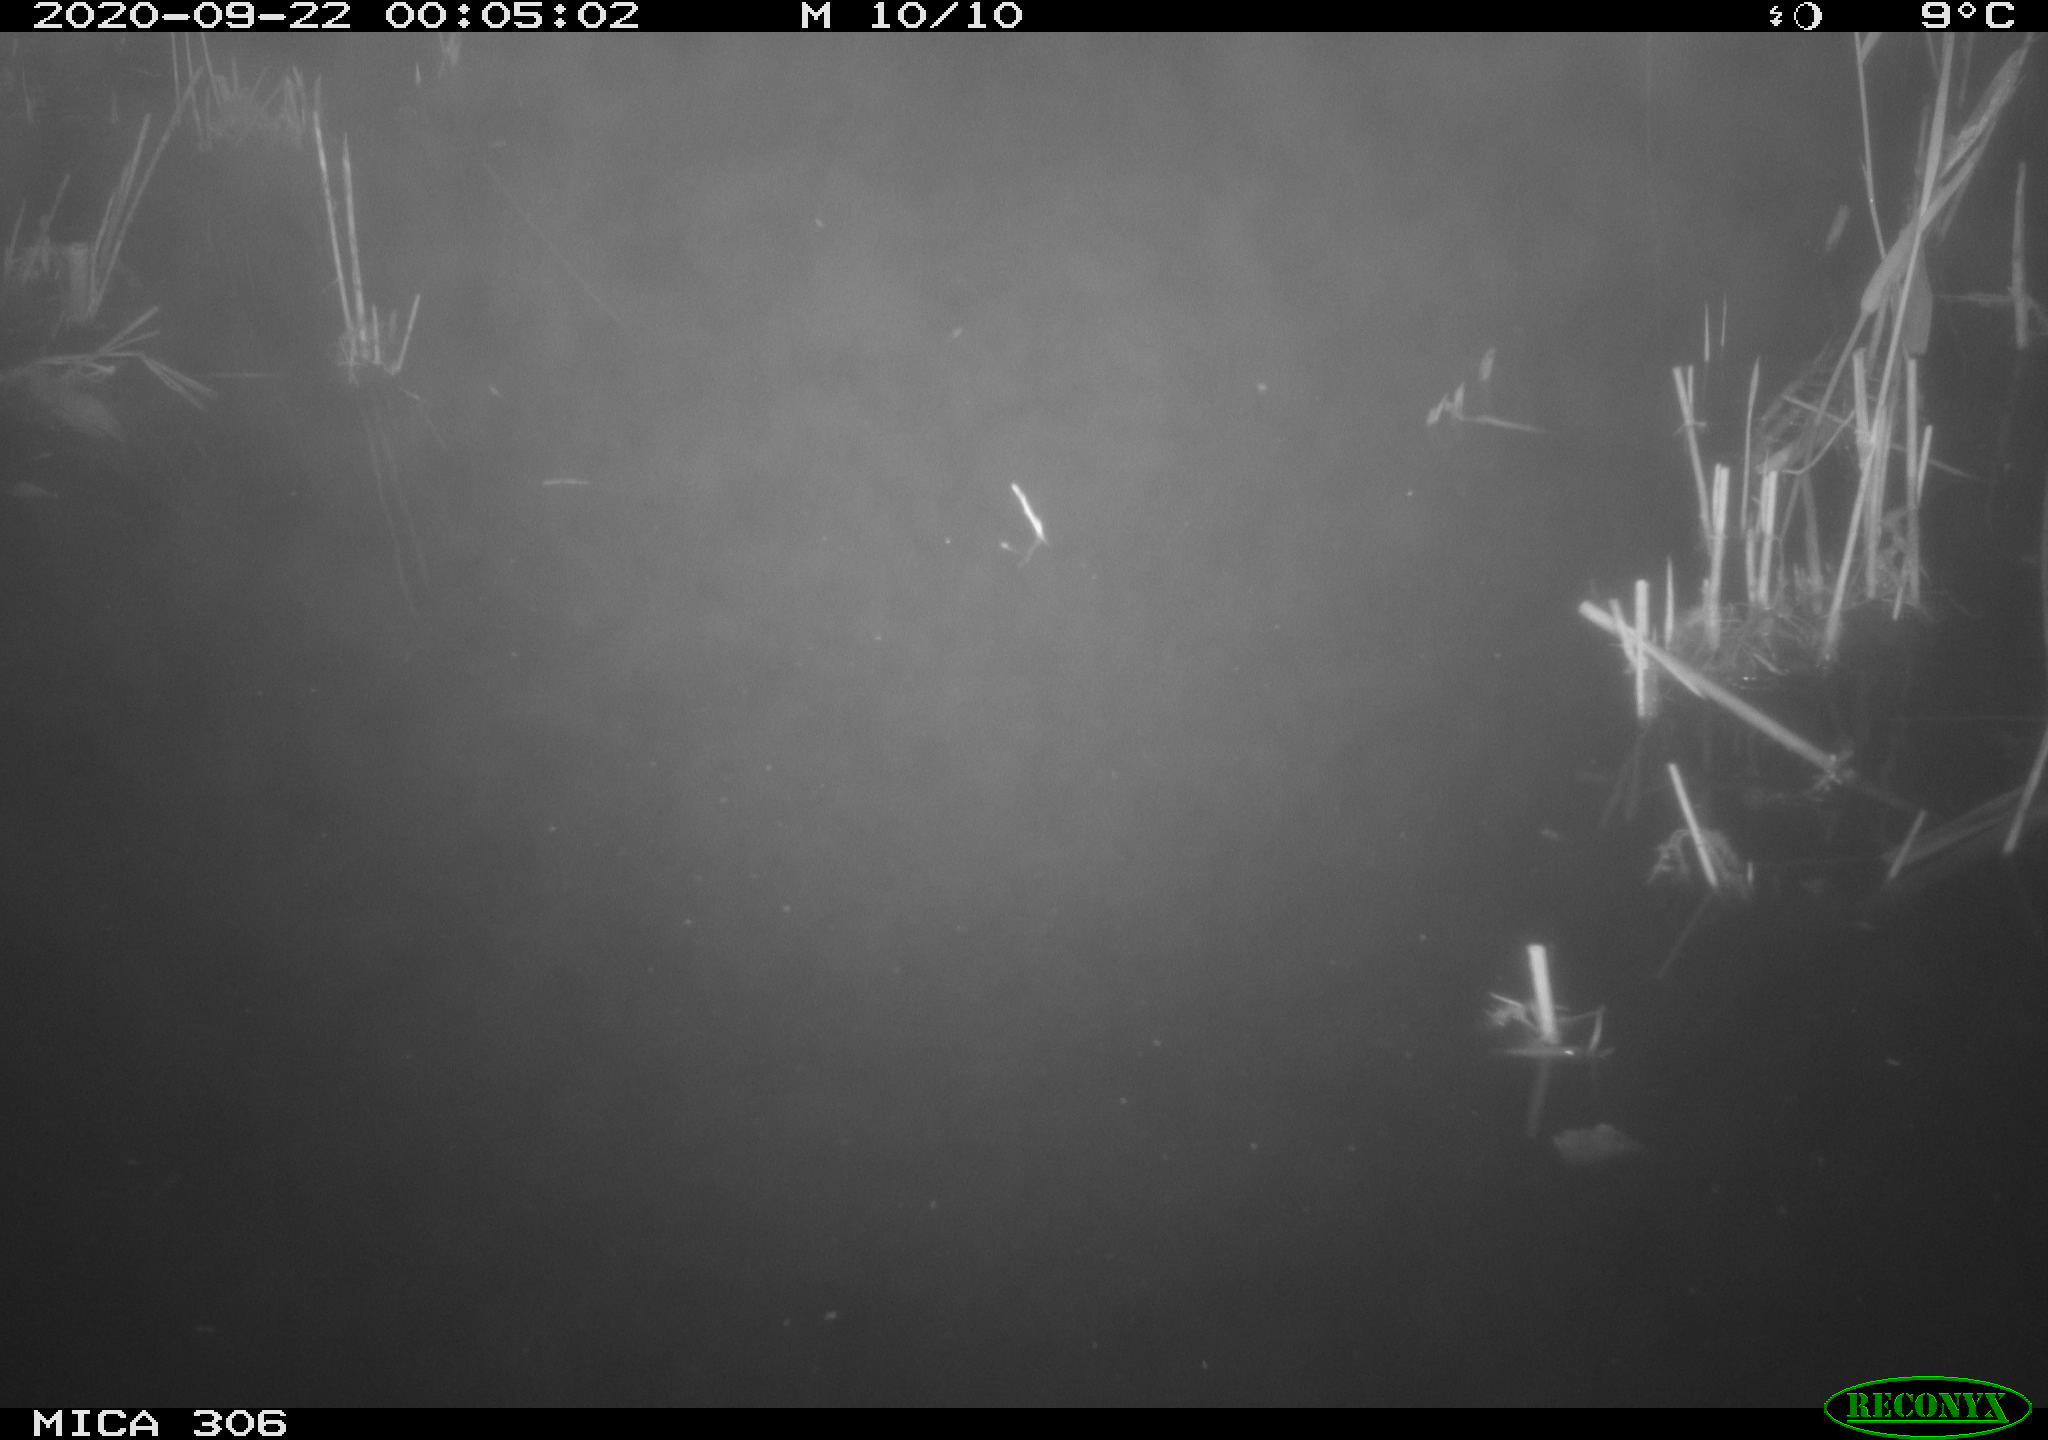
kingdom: Animalia
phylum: Chordata
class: Mammalia
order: Rodentia
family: Cricetidae
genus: Ondatra
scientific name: Ondatra zibethicus
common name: Muskrat
